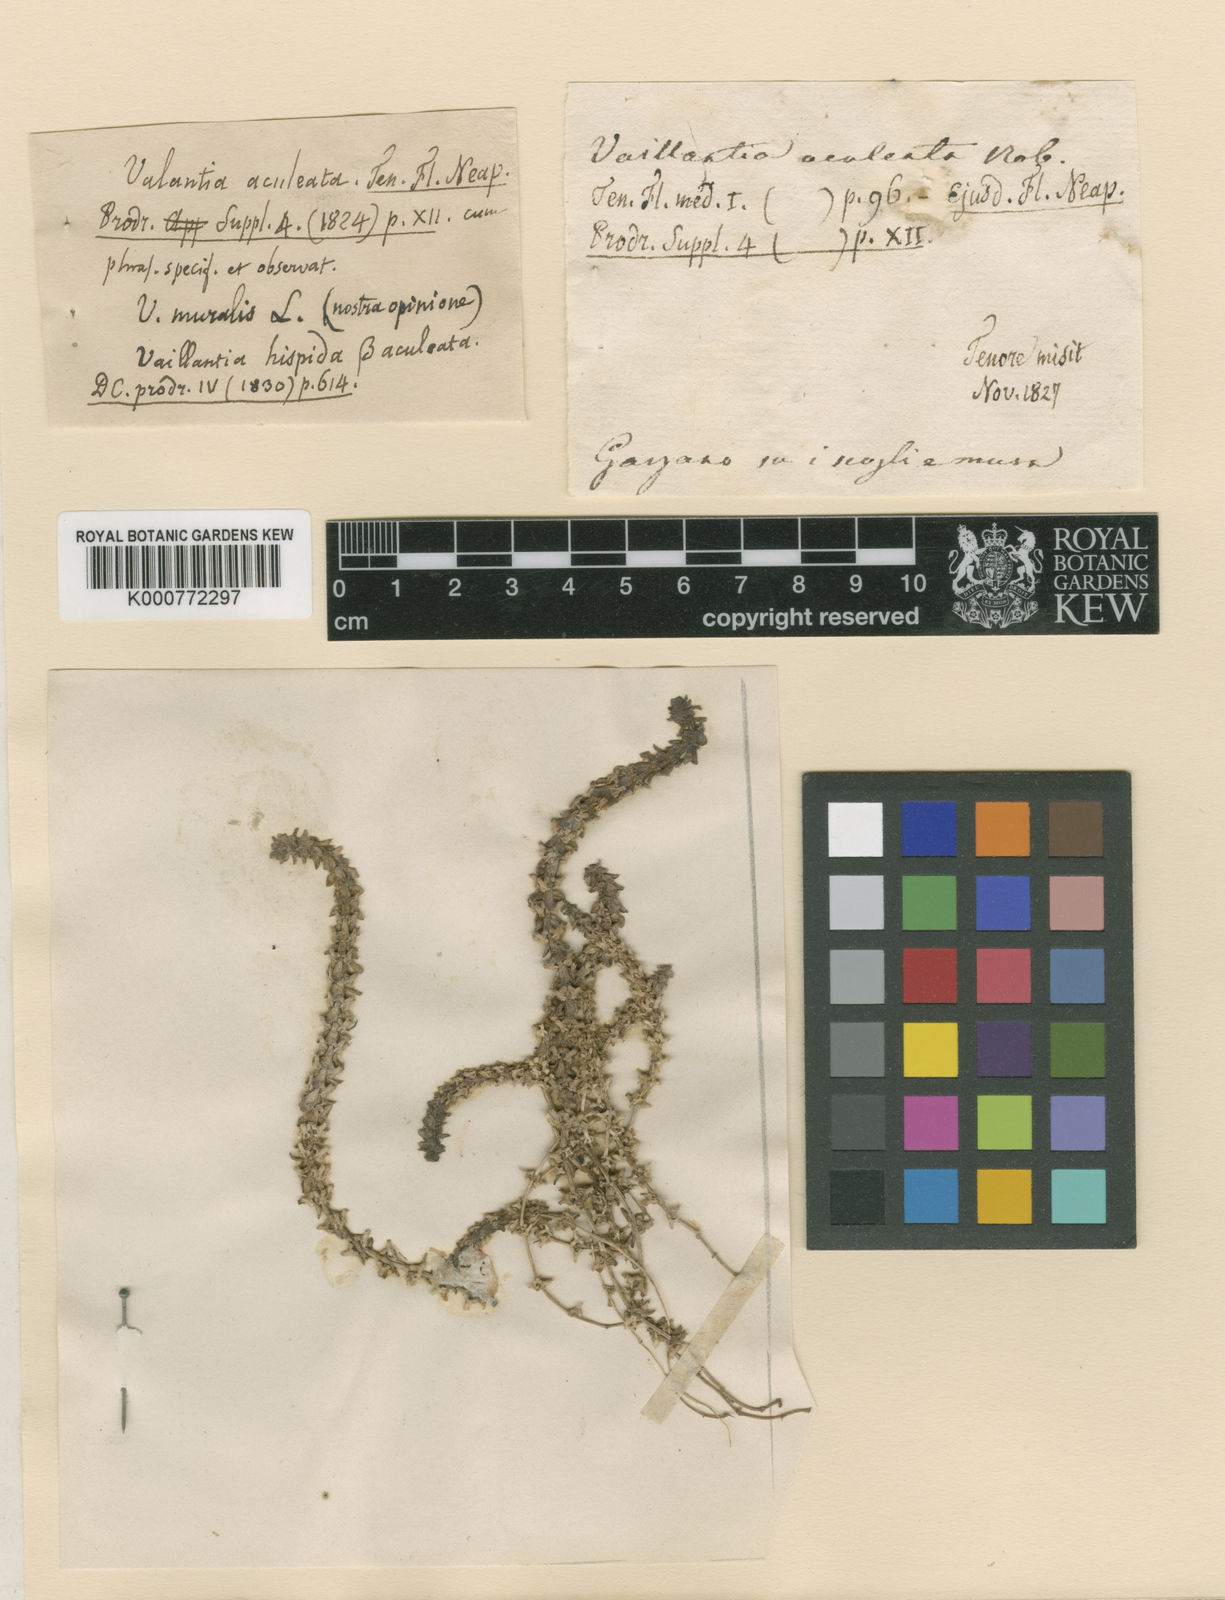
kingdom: Plantae
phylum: Tracheophyta
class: Magnoliopsida
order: Gentianales
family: Rubiaceae
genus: Valantia
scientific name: Valantia muralis
